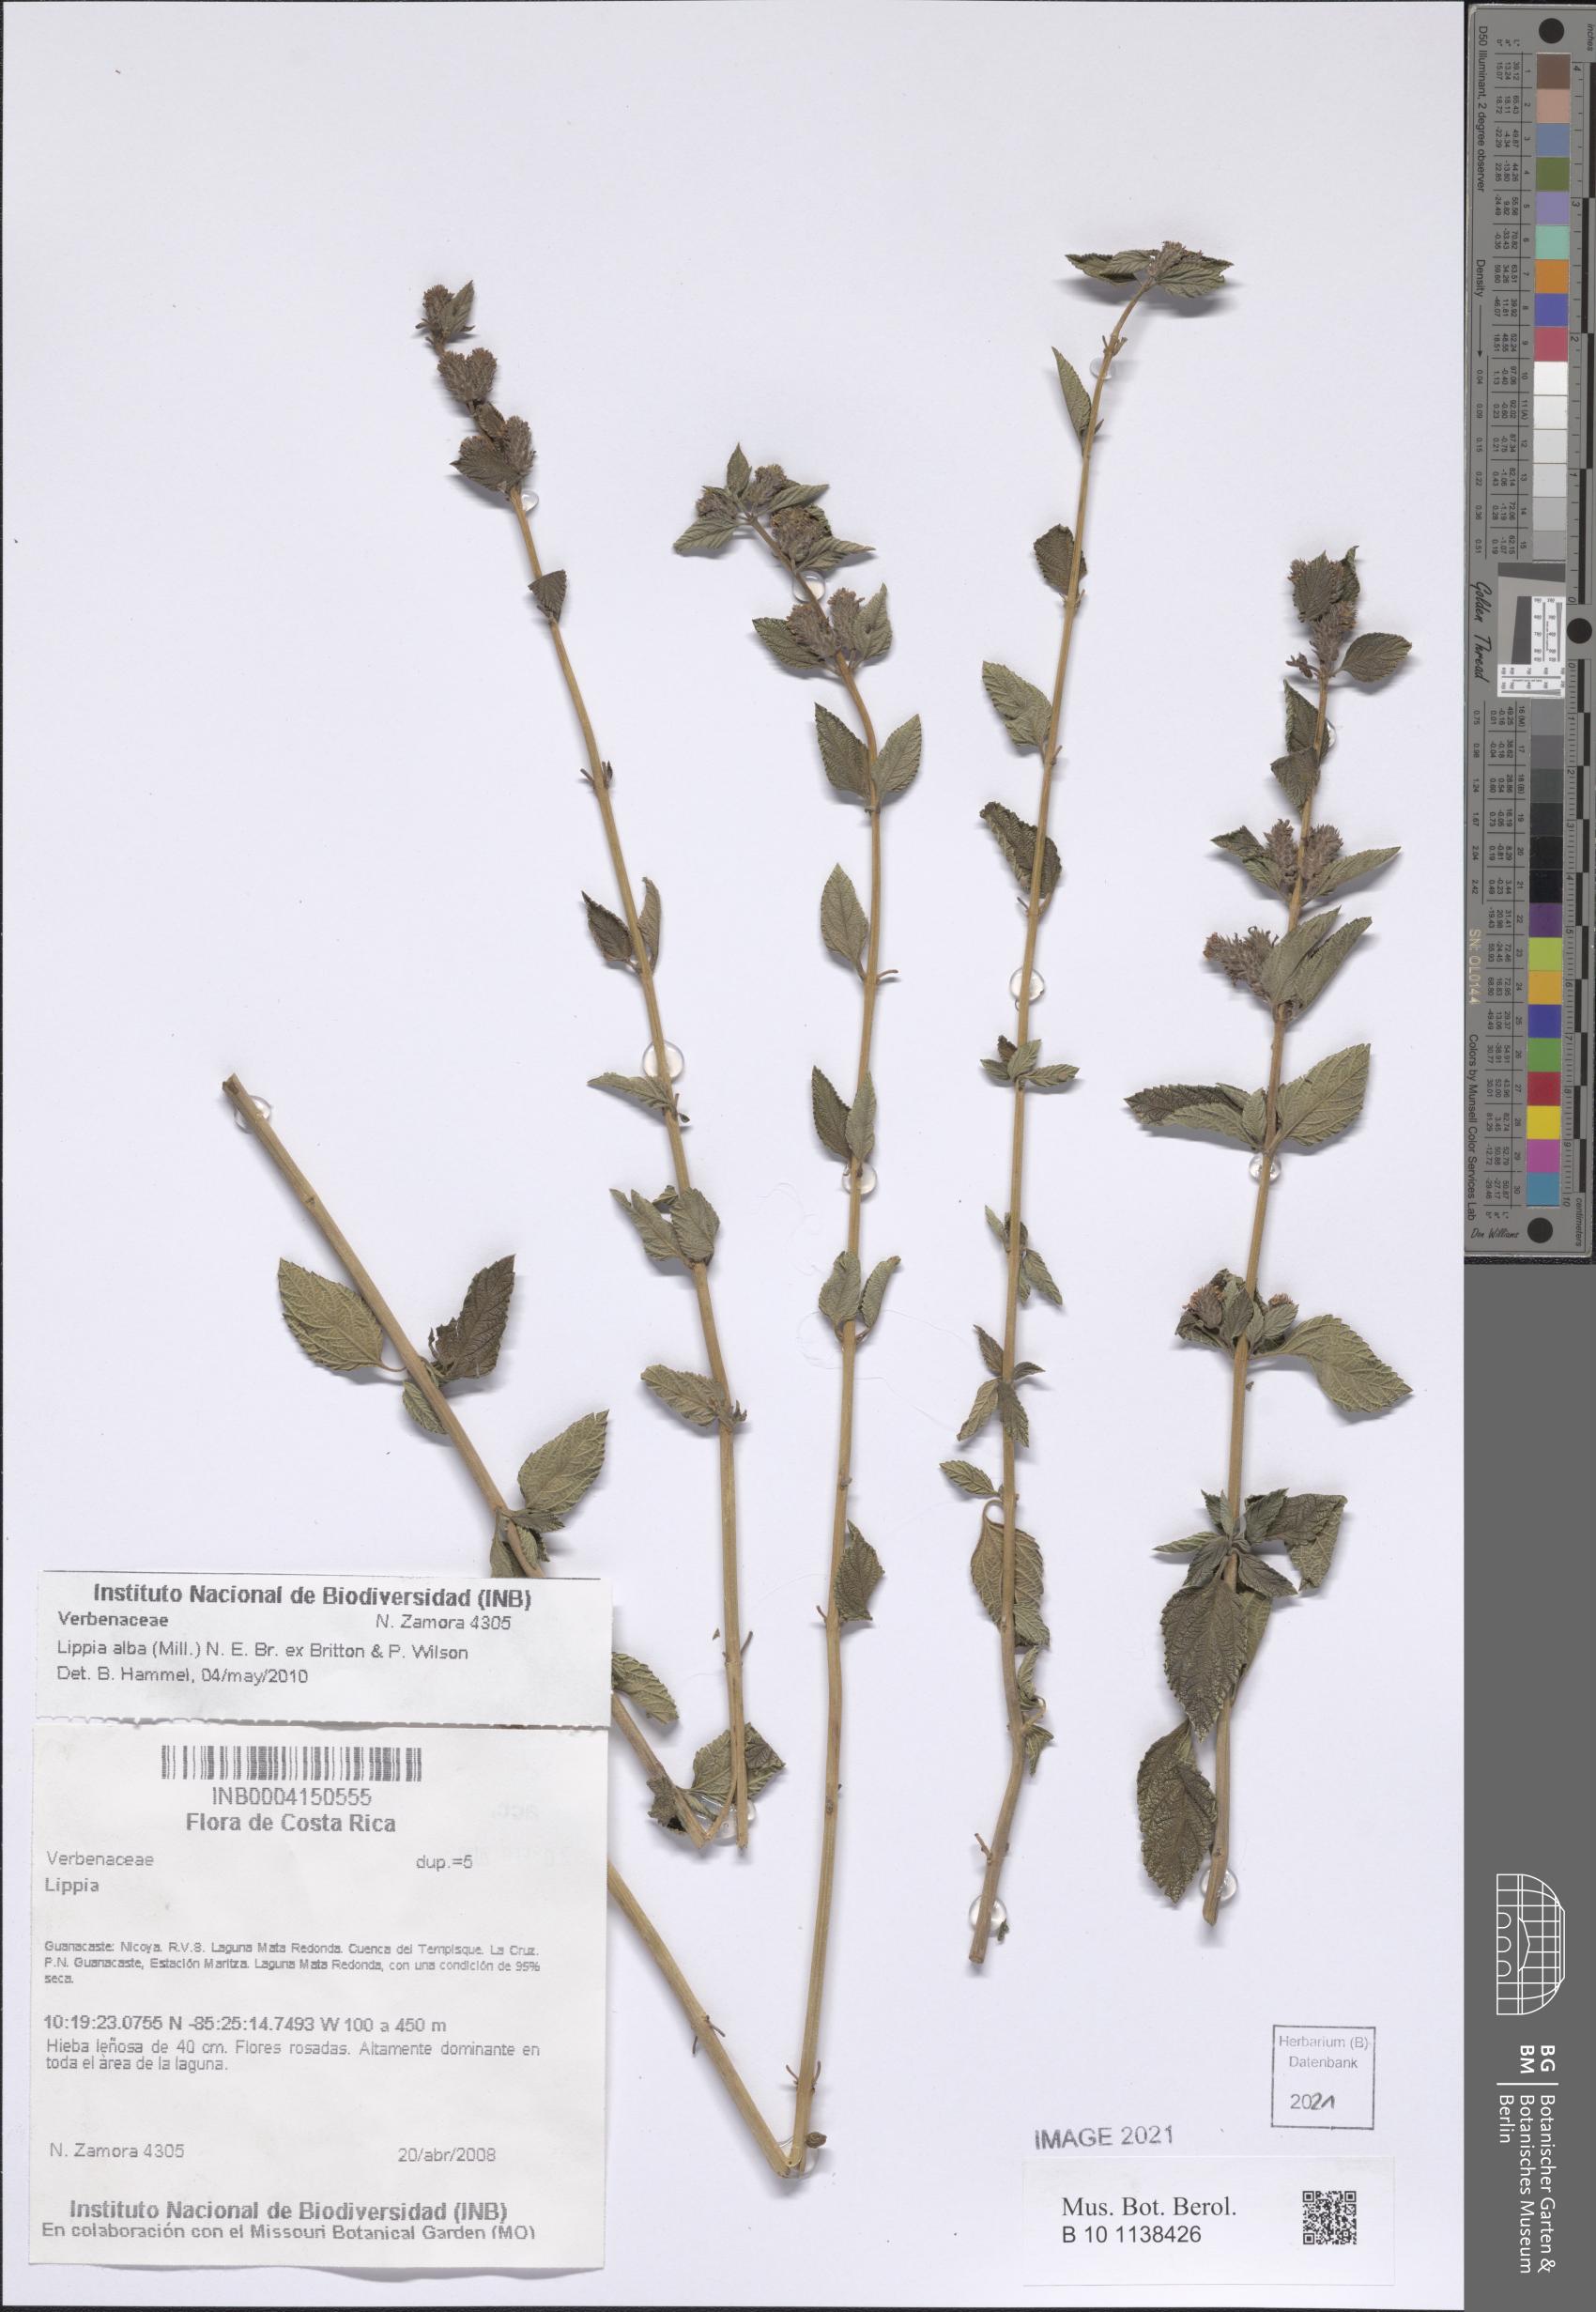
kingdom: Plantae
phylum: Tracheophyta
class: Magnoliopsida
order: Lamiales
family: Verbenaceae
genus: Lippia
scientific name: Lippia alba
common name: Bushy matgrass
